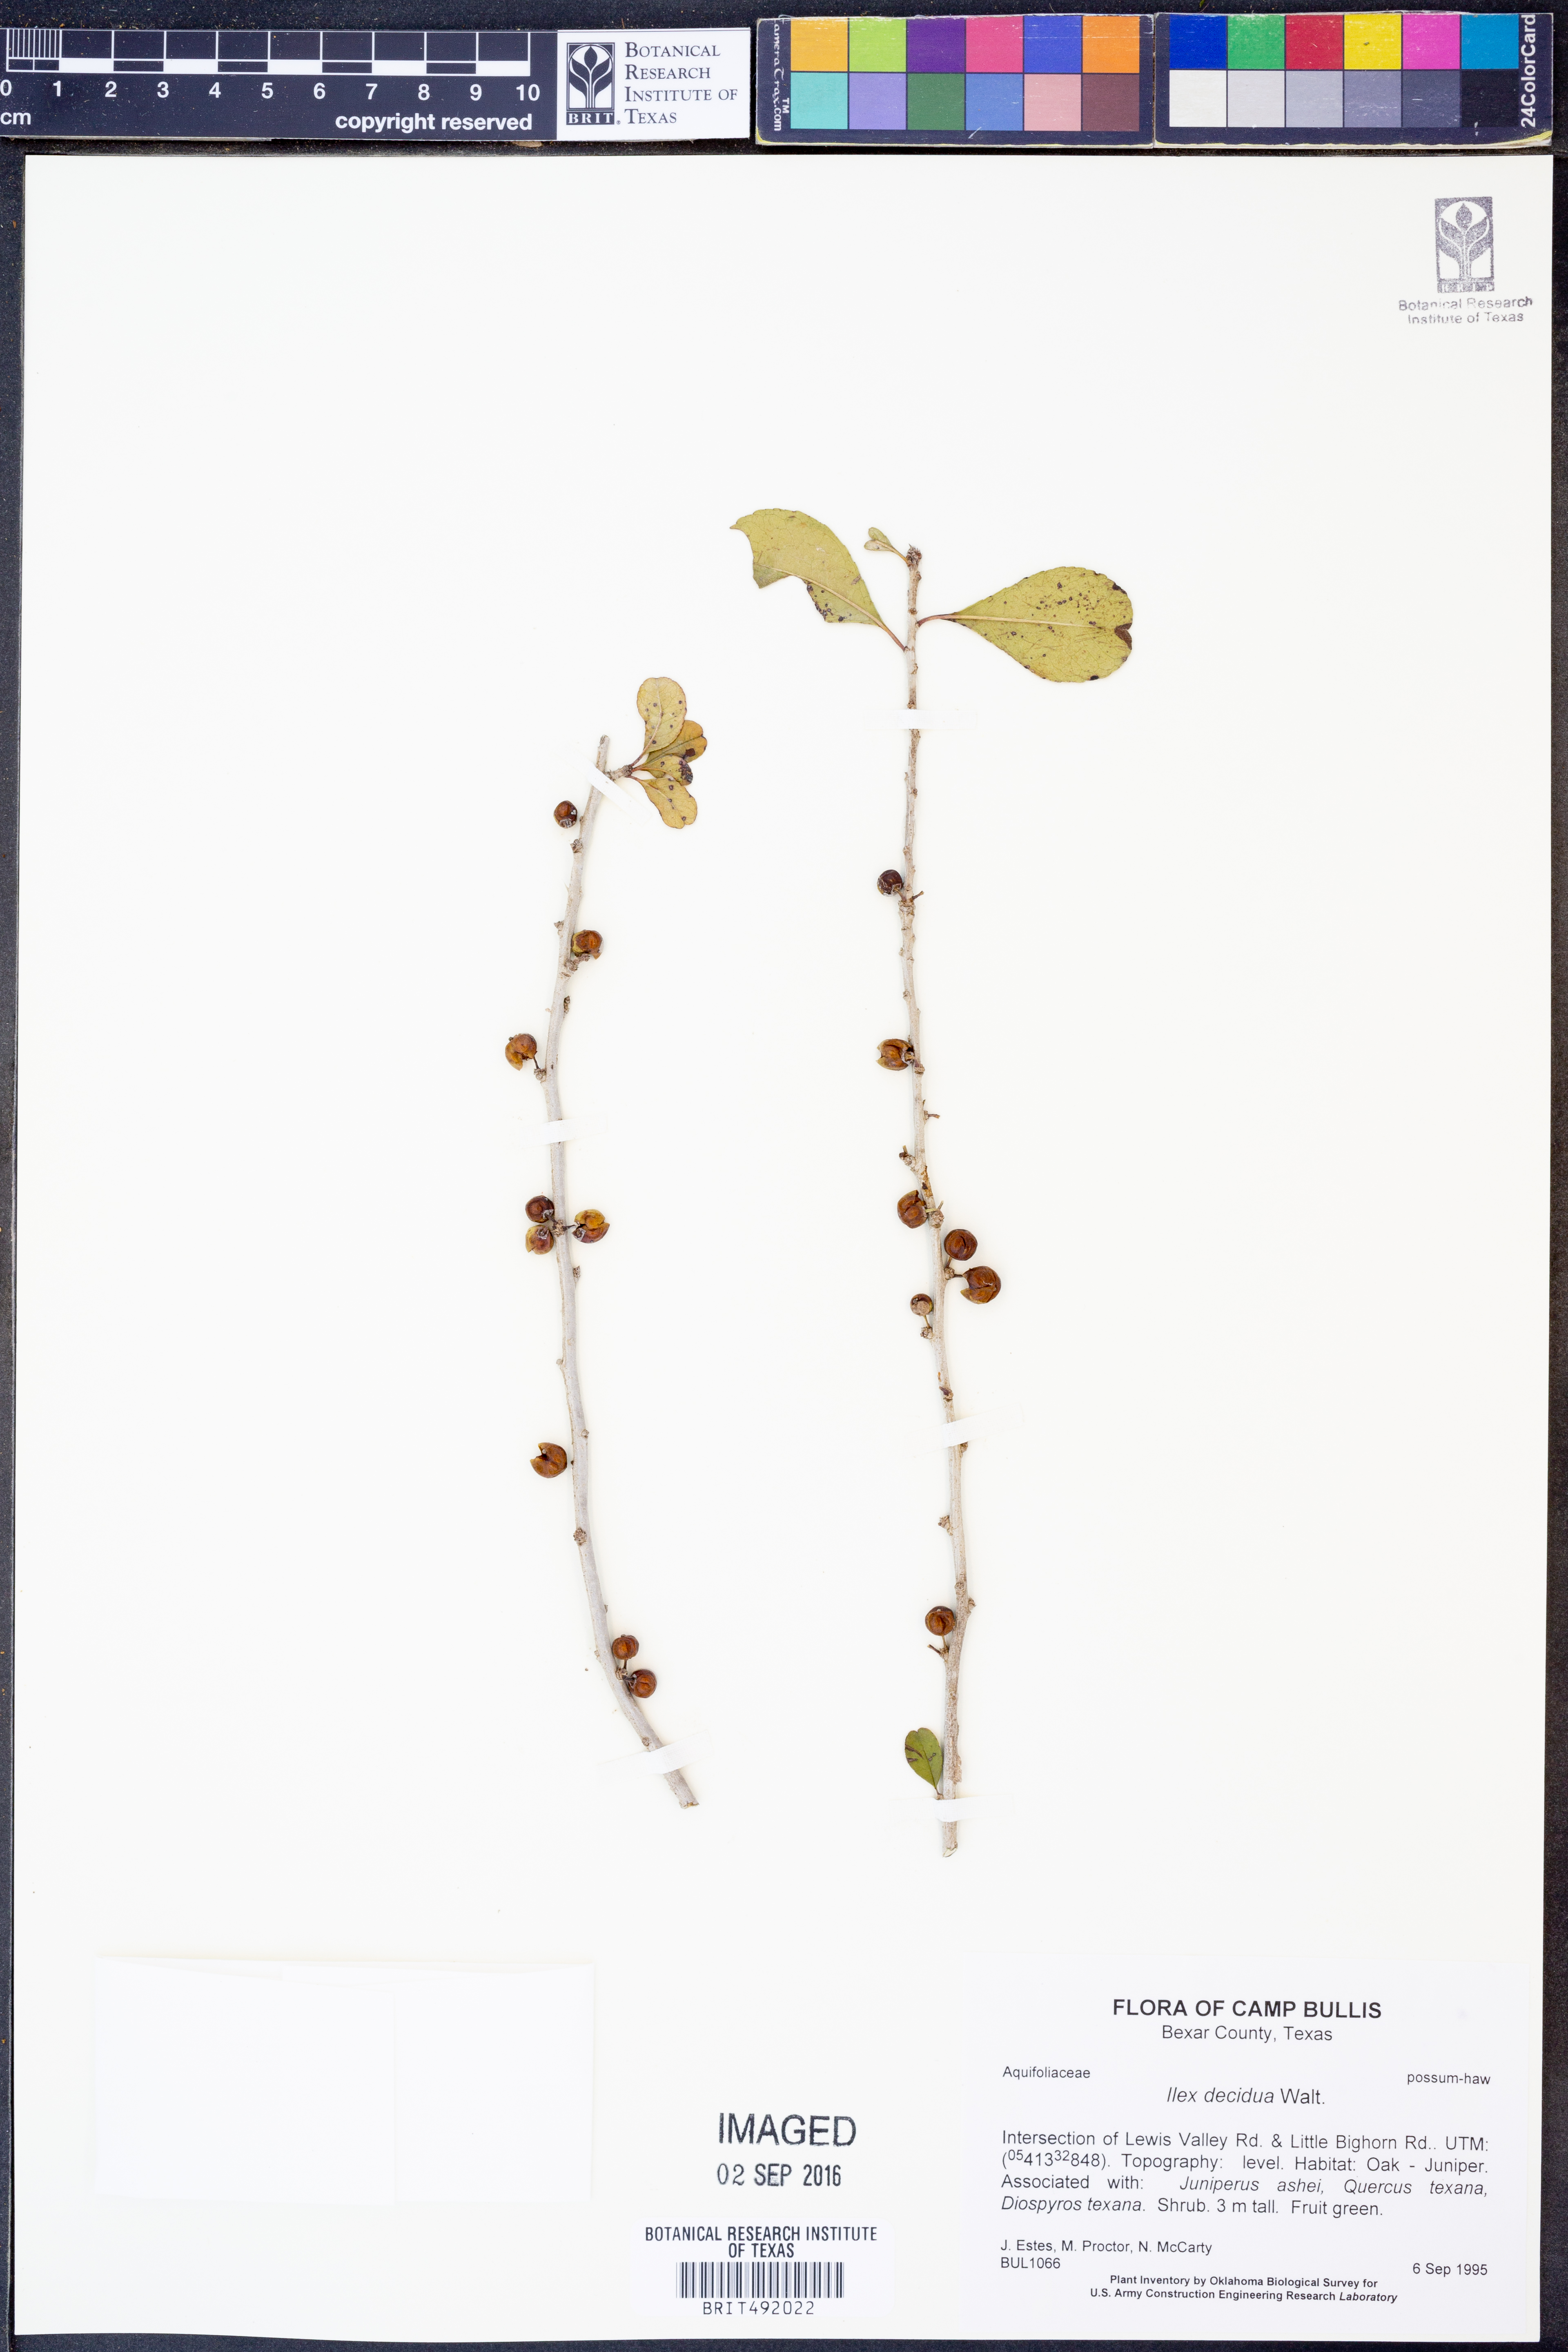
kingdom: Plantae
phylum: Tracheophyta
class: Magnoliopsida
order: Aquifoliales
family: Aquifoliaceae
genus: Ilex
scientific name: Ilex decidua
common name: Possum-haw
